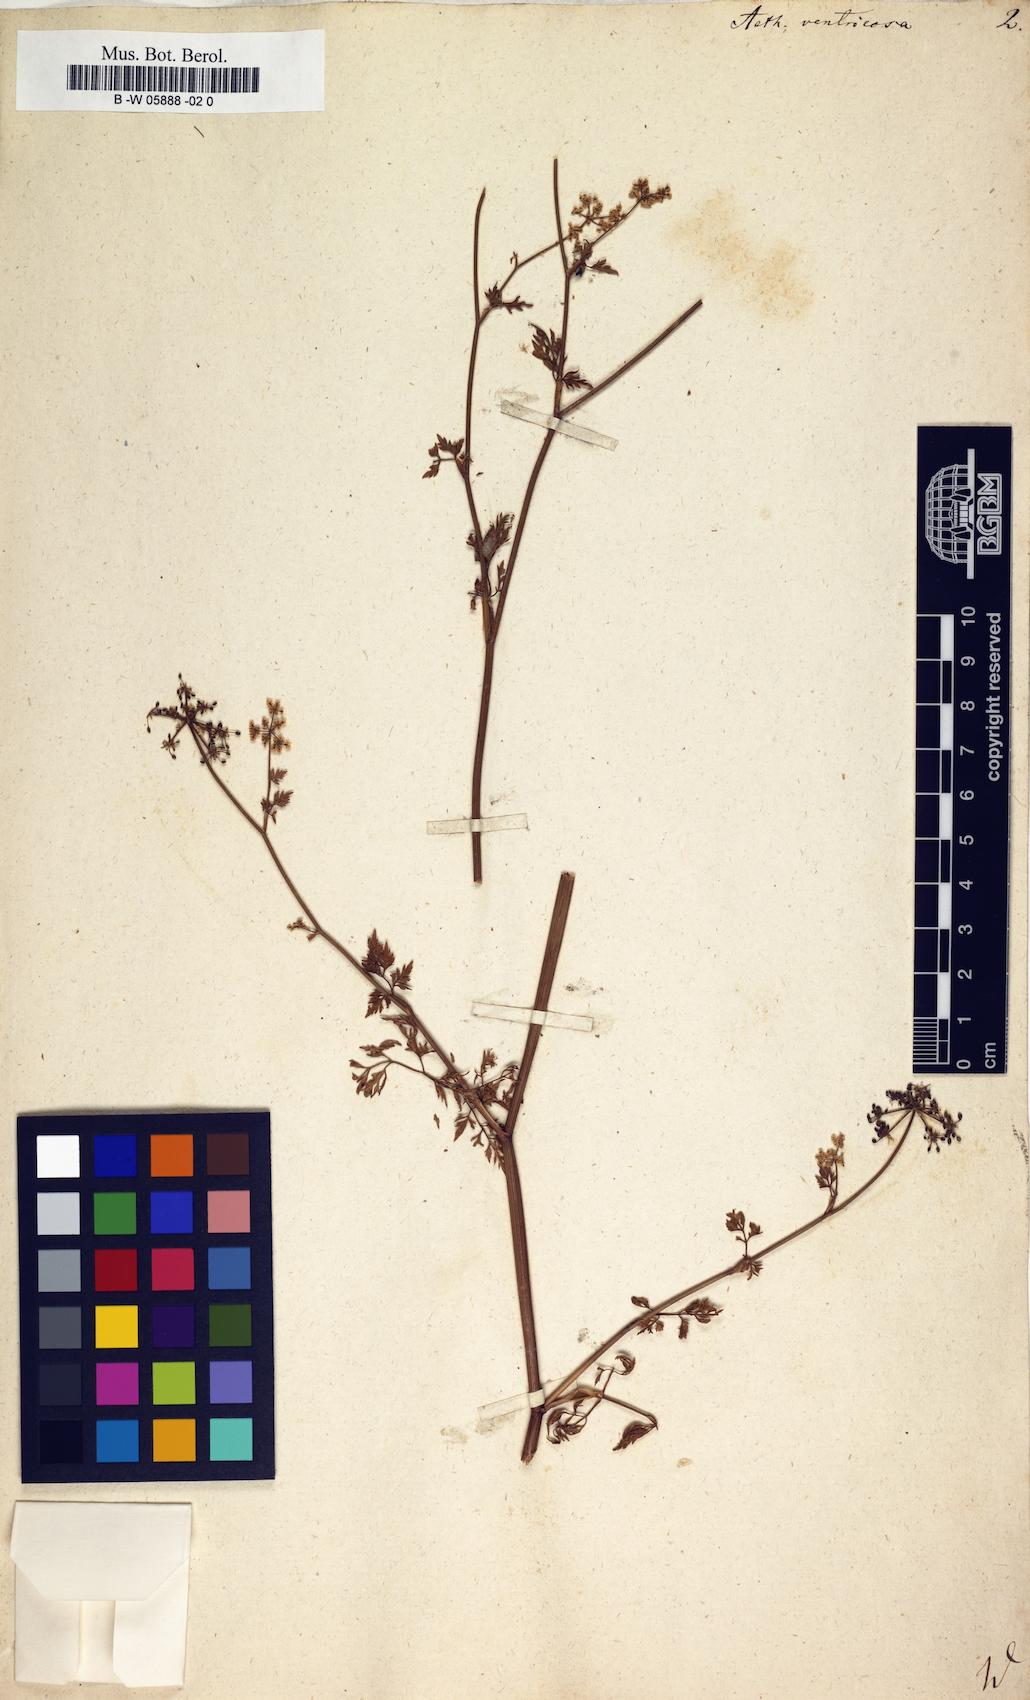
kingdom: Plantae
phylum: Tracheophyta
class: Magnoliopsida
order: Apiales
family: Apiaceae
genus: Aethusa
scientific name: Aethusa
